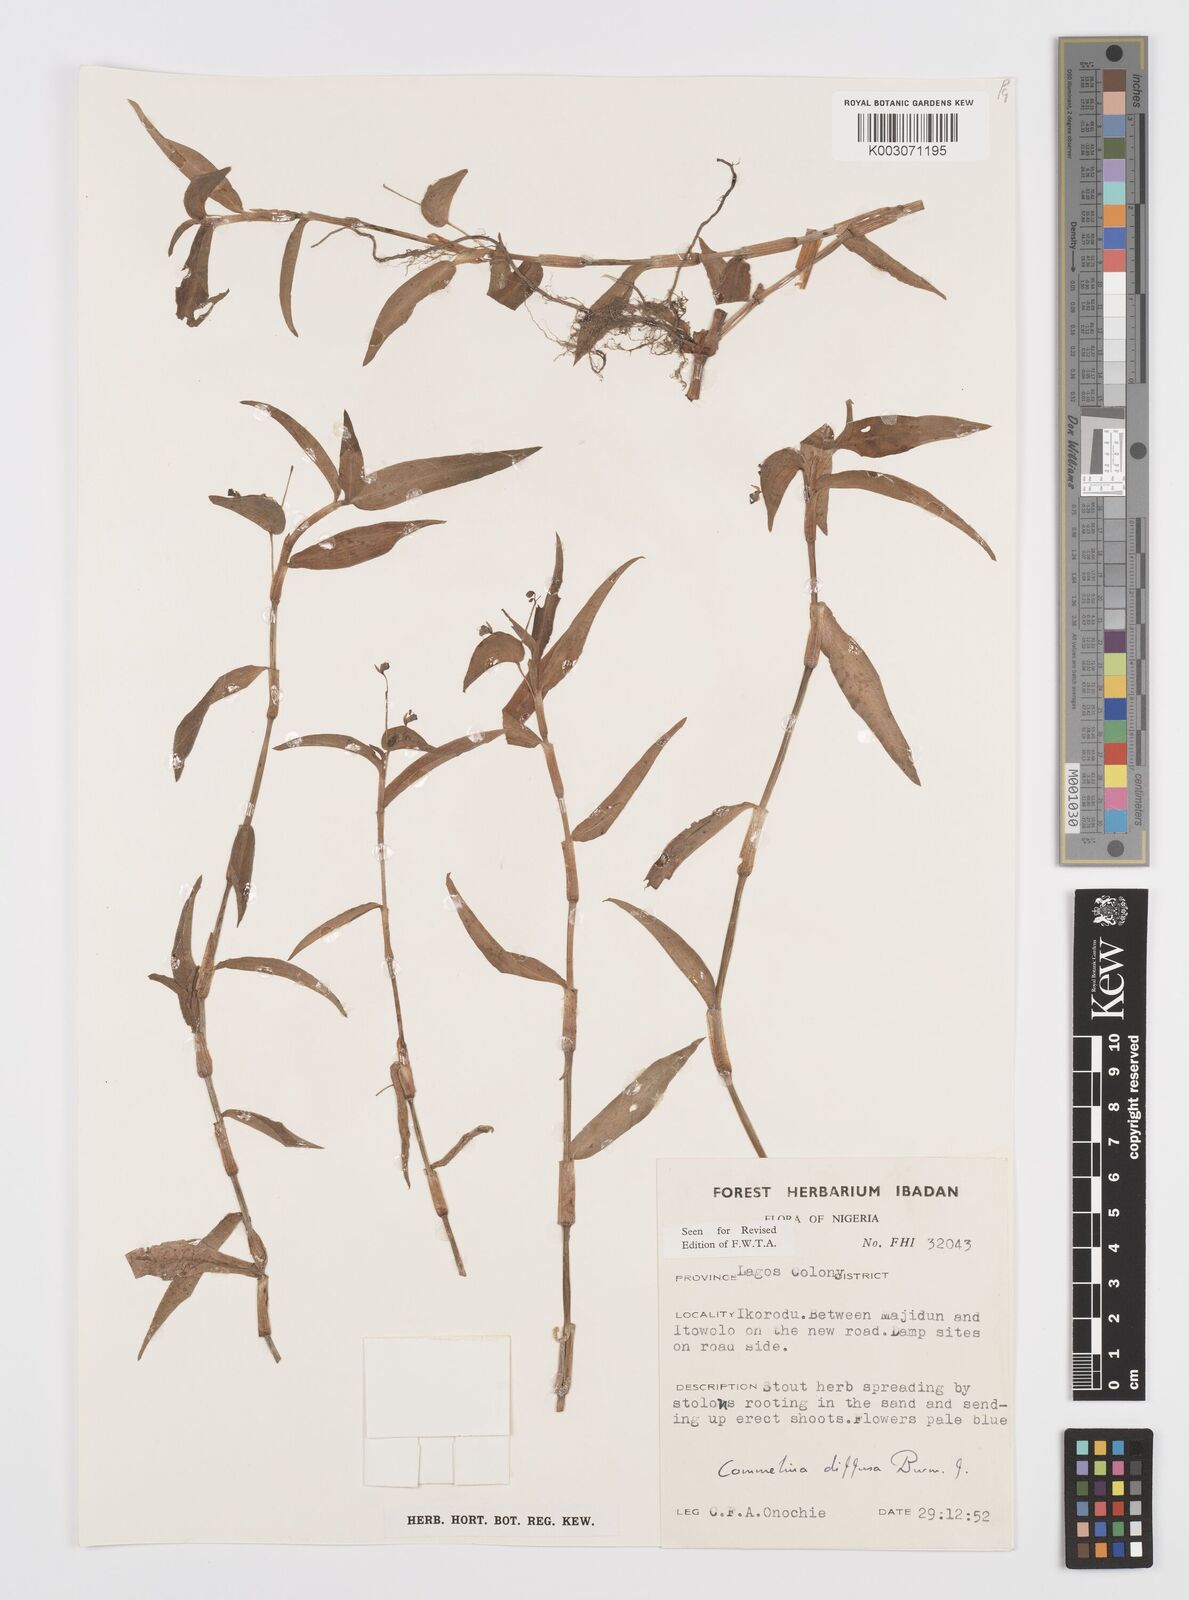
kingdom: Plantae
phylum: Tracheophyta
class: Liliopsida
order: Commelinales
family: Commelinaceae
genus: Commelina
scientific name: Commelina diffusa
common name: Climbing dayflower
